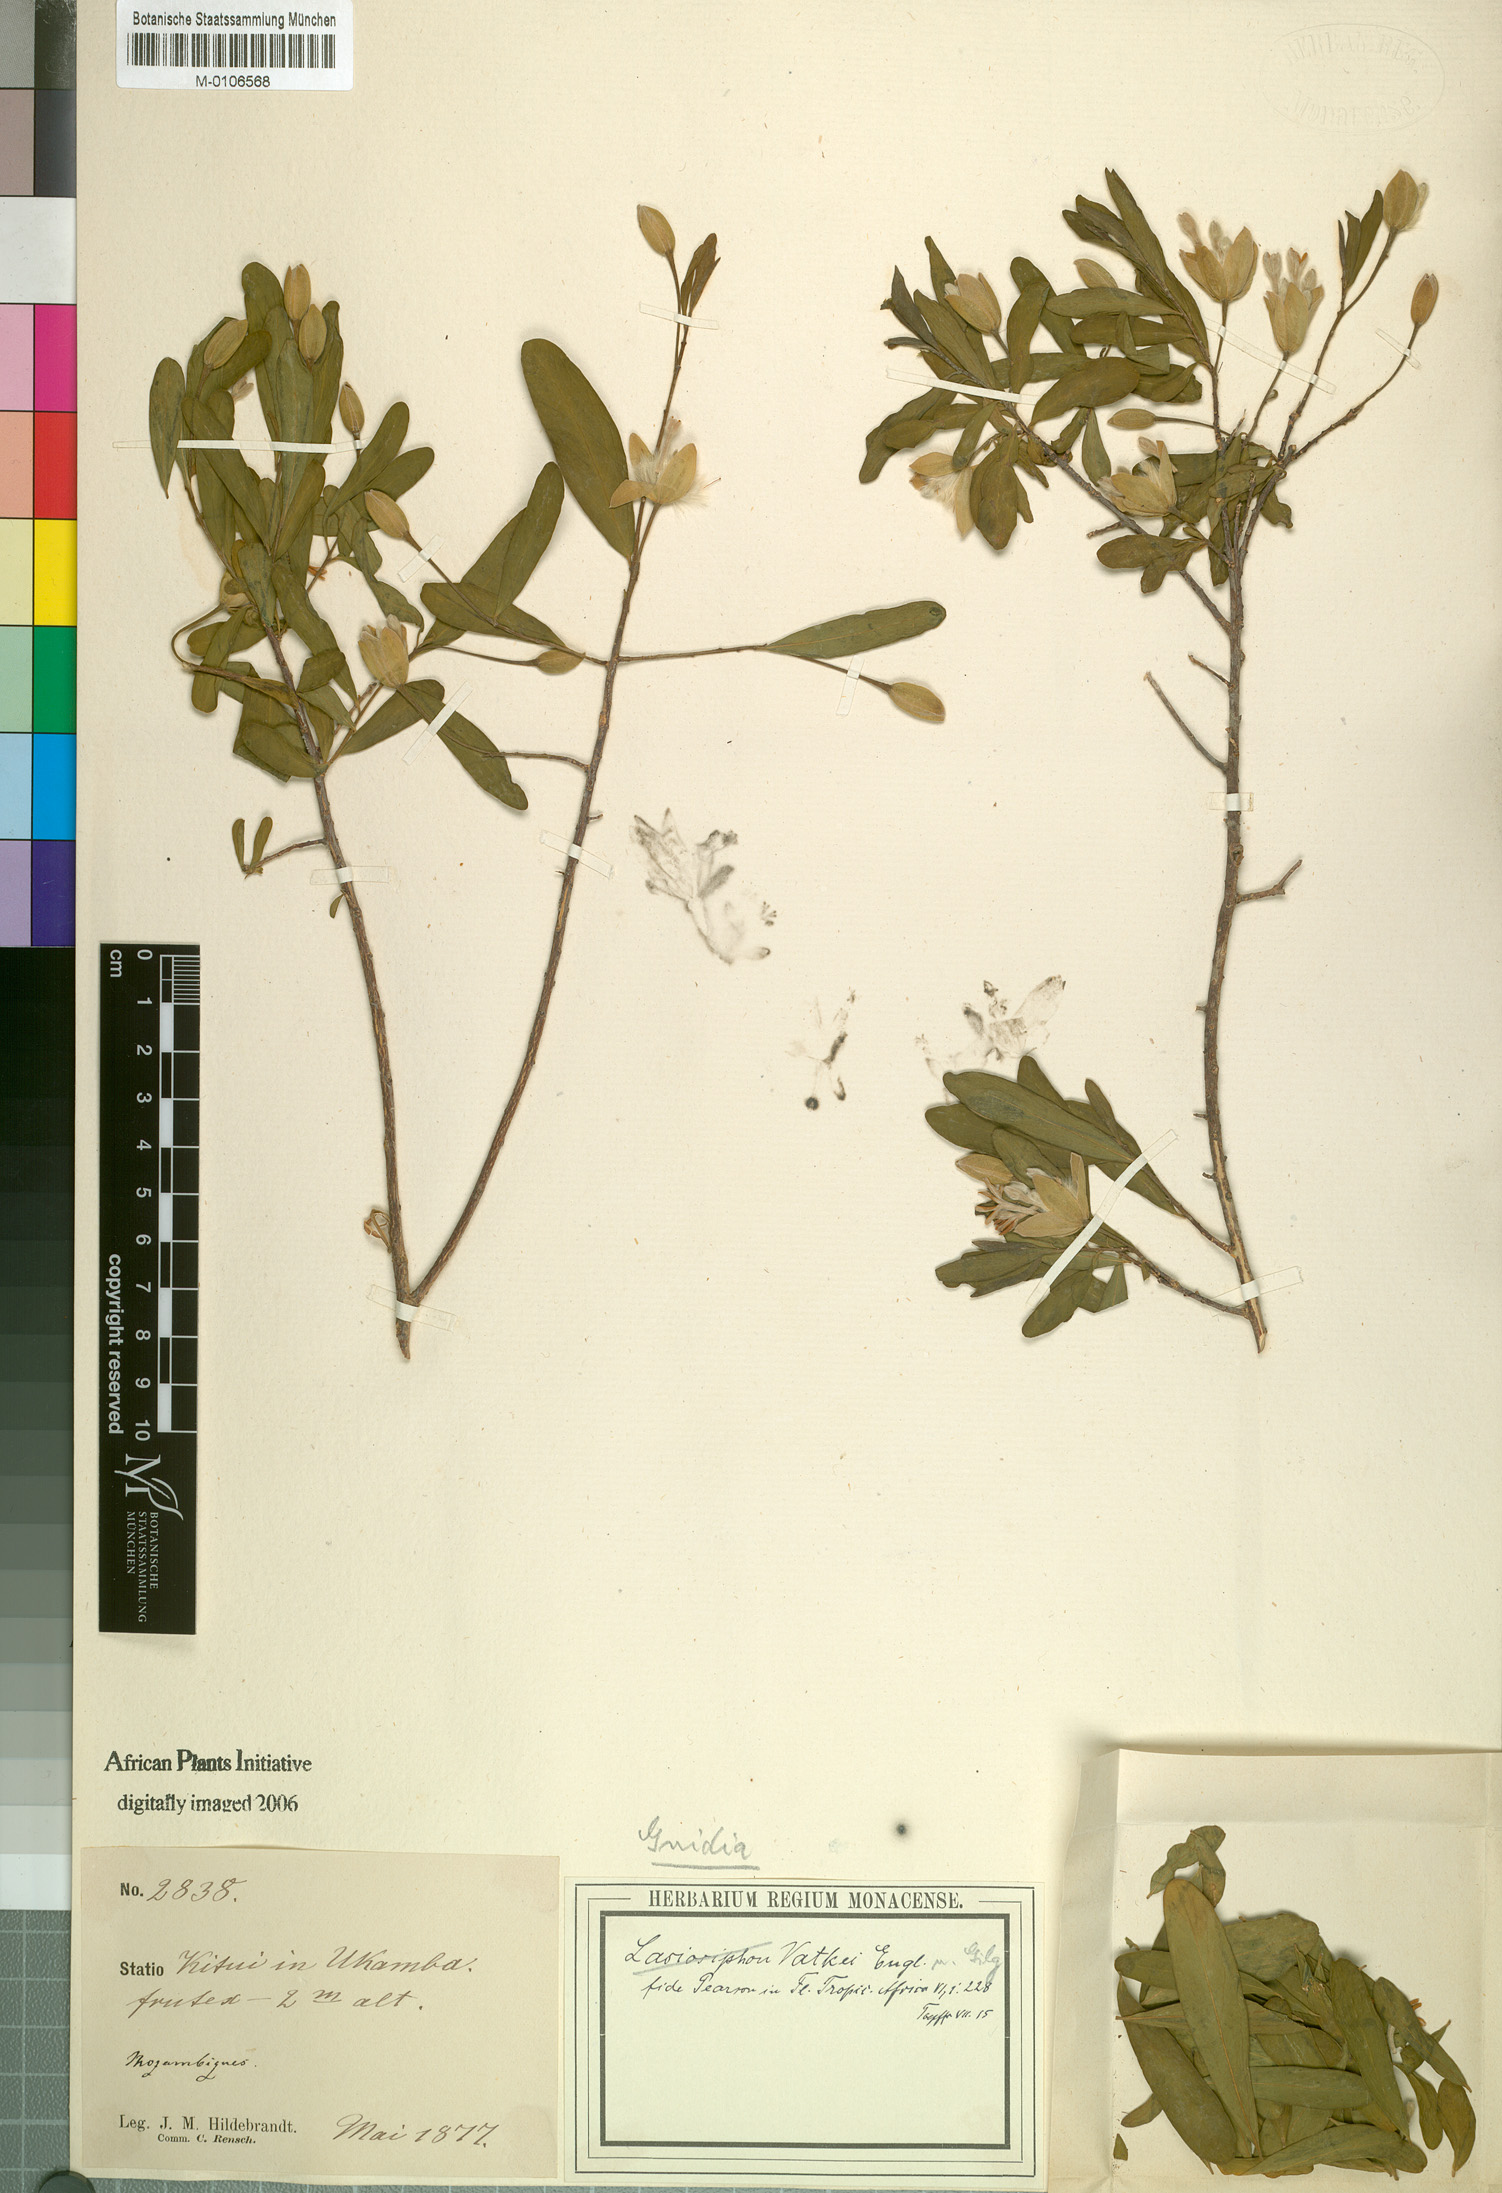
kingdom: Plantae
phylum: Tracheophyta
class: Magnoliopsida
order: Malvales
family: Thymelaeaceae
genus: Gnidia
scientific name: Gnidia latifolia
